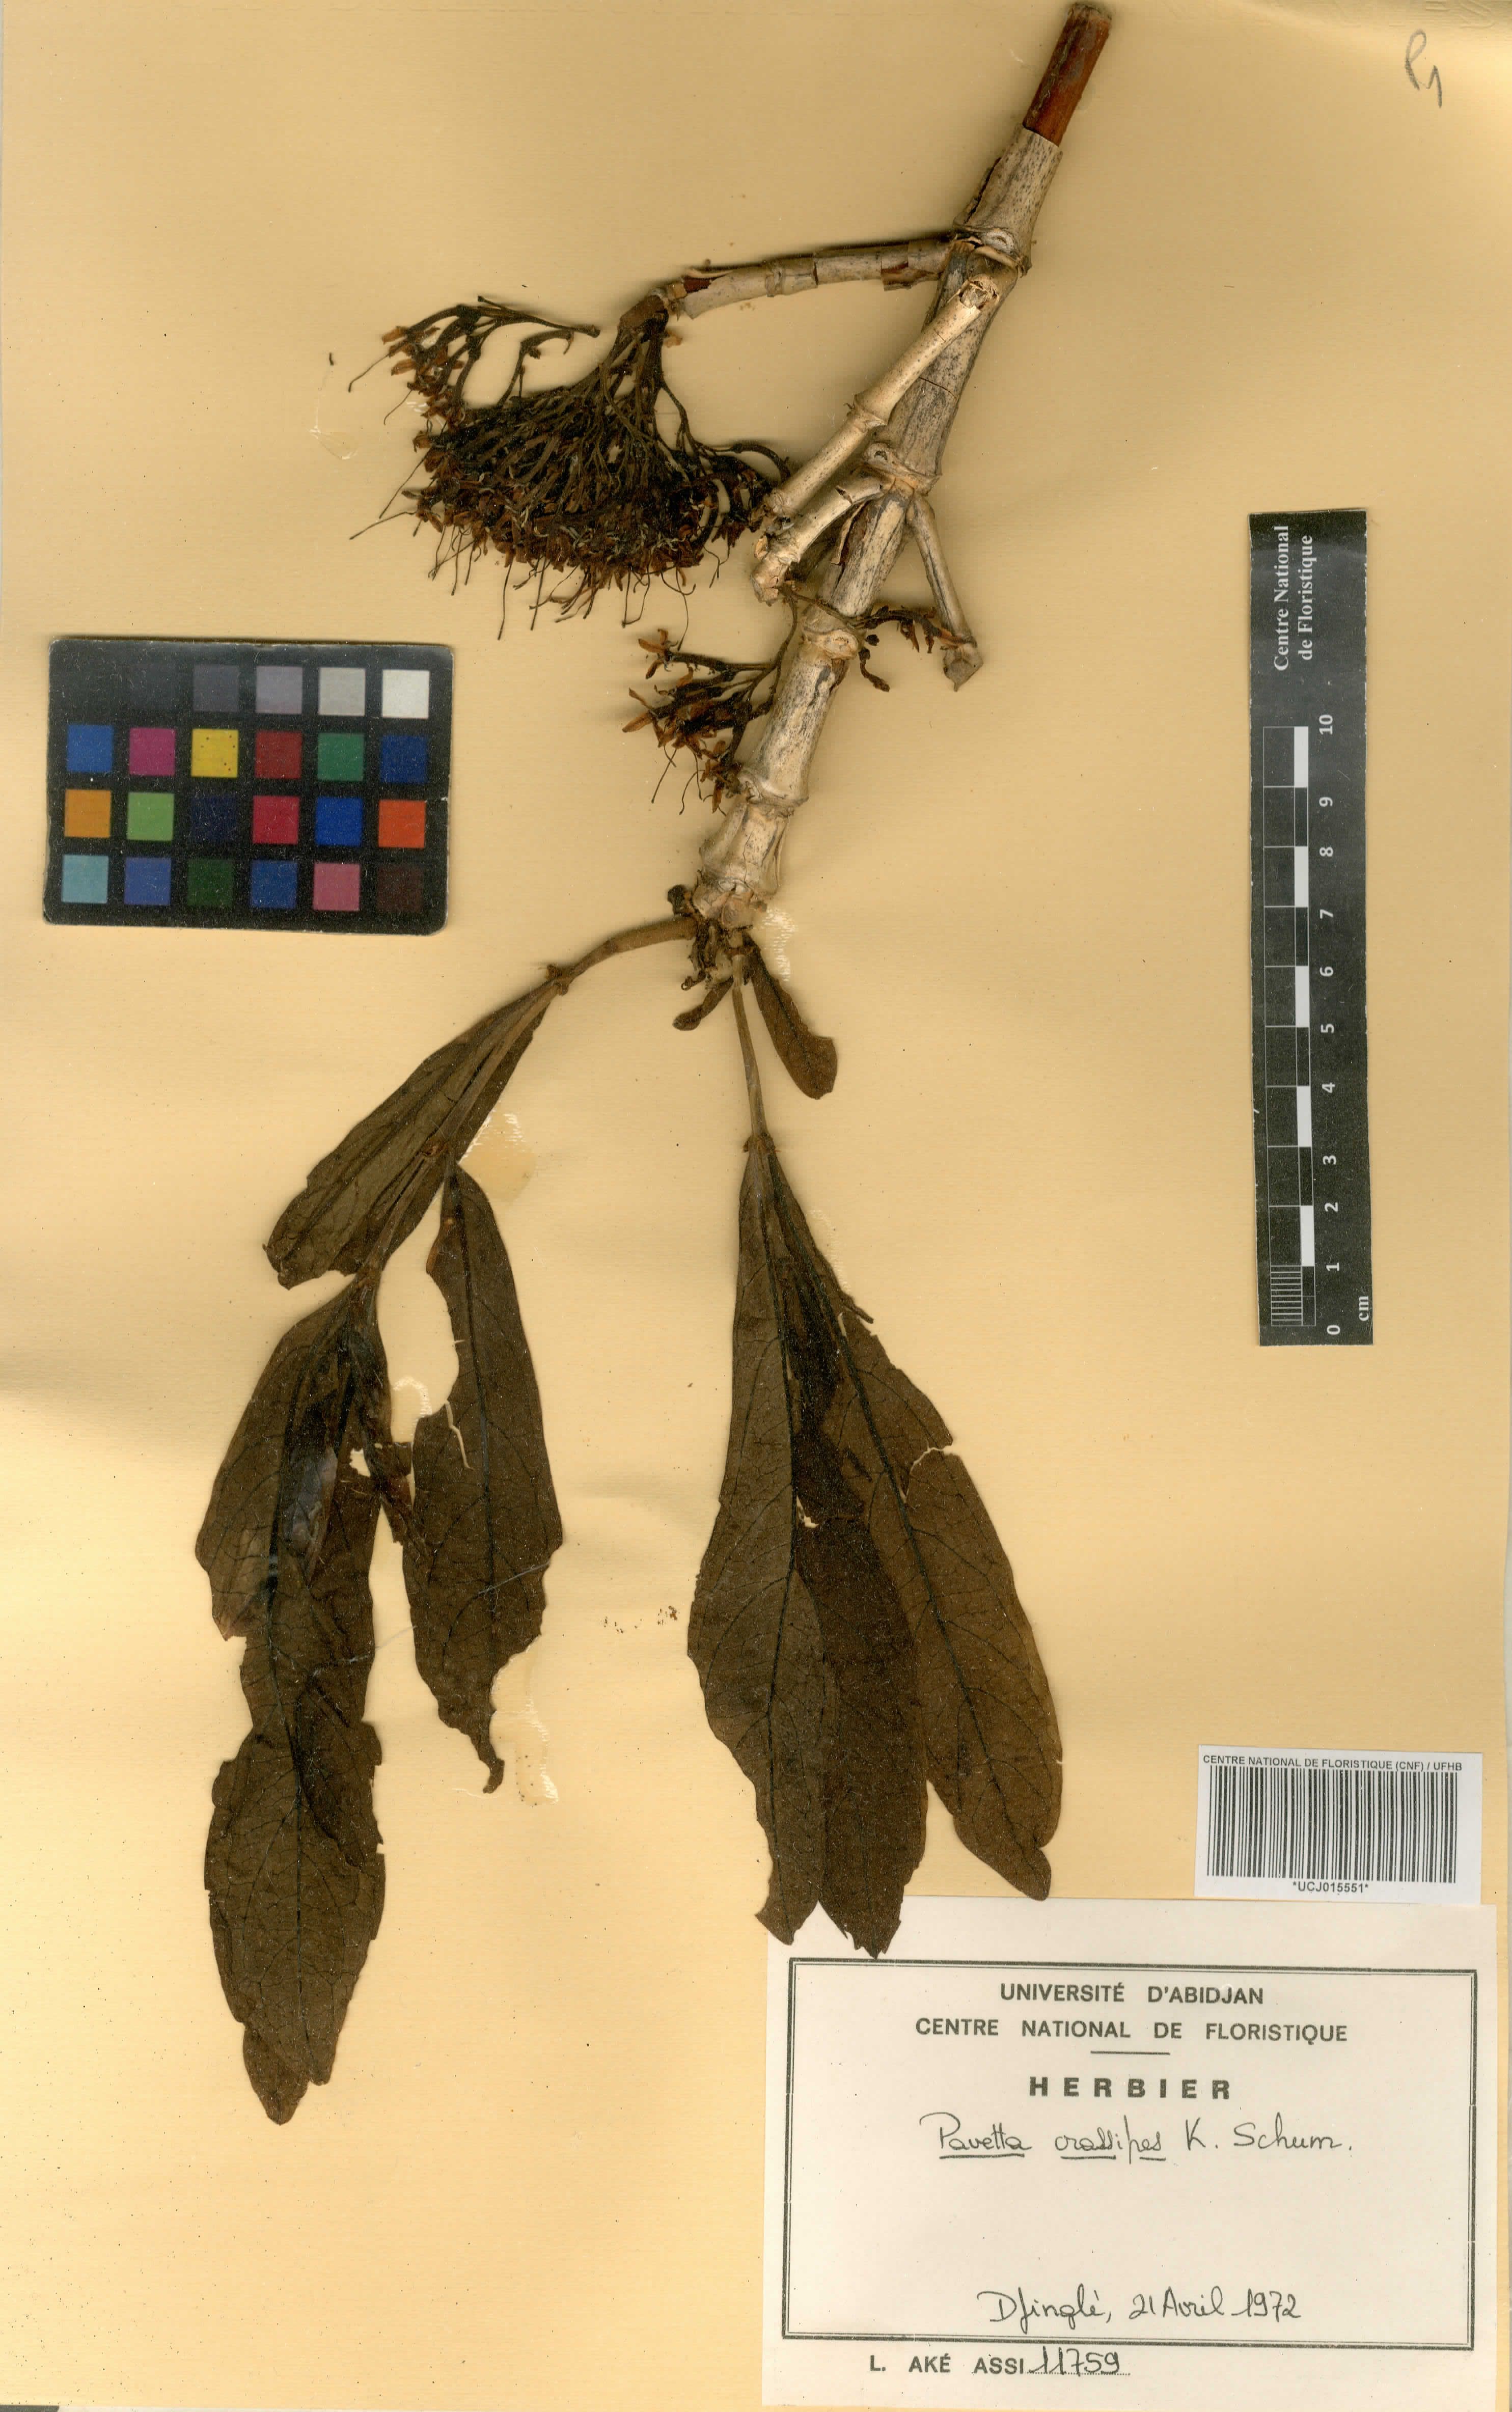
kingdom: Plantae
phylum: Tracheophyta
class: Magnoliopsida
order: Gentianales
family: Rubiaceae
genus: Pavetta
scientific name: Pavetta crassipes
